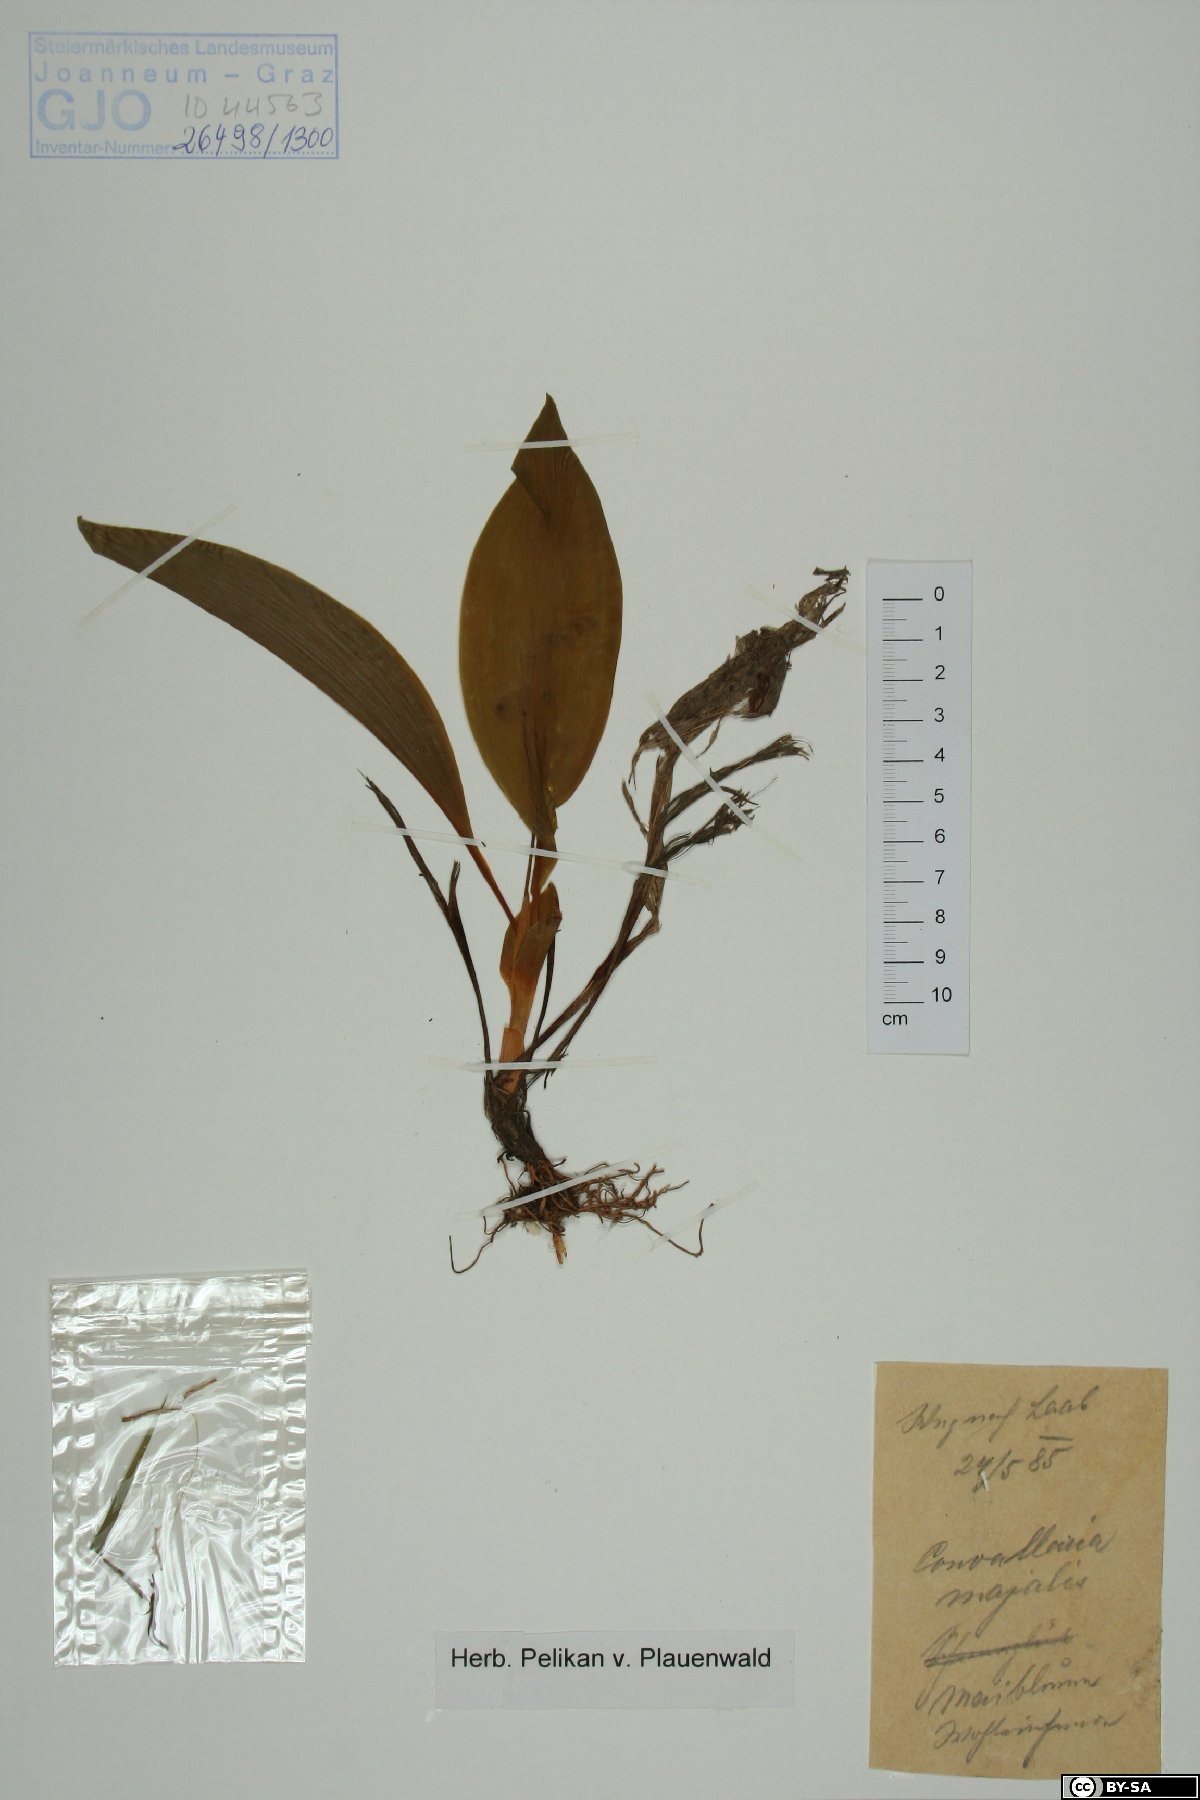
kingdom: Plantae
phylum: Tracheophyta
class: Liliopsida
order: Asparagales
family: Asparagaceae
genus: Convallaria
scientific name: Convallaria majalis
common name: Lily-of-the-valley
